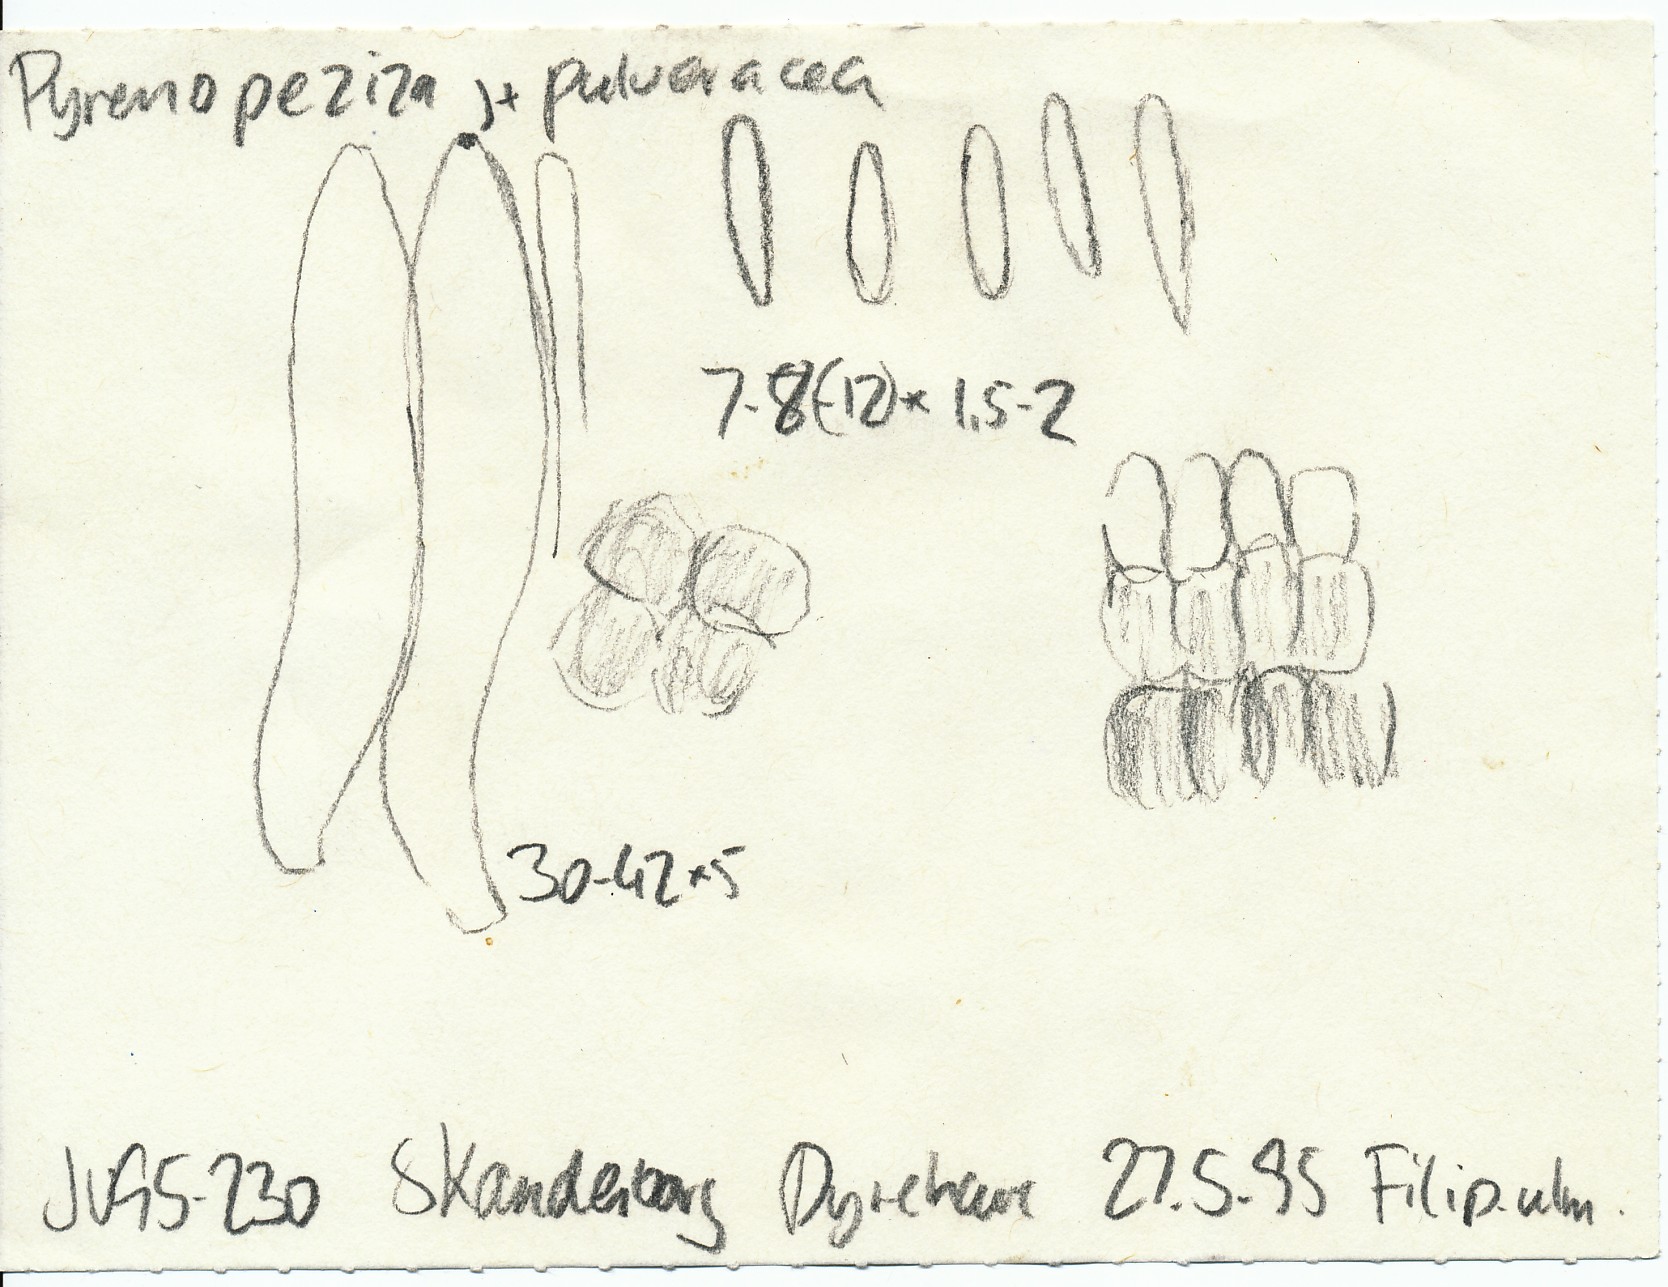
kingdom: Fungi
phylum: Ascomycota
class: Leotiomycetes
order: Helotiales
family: Ploettnerulaceae
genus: Pyrenopeziza
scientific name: Pyrenopeziza pulveracea
